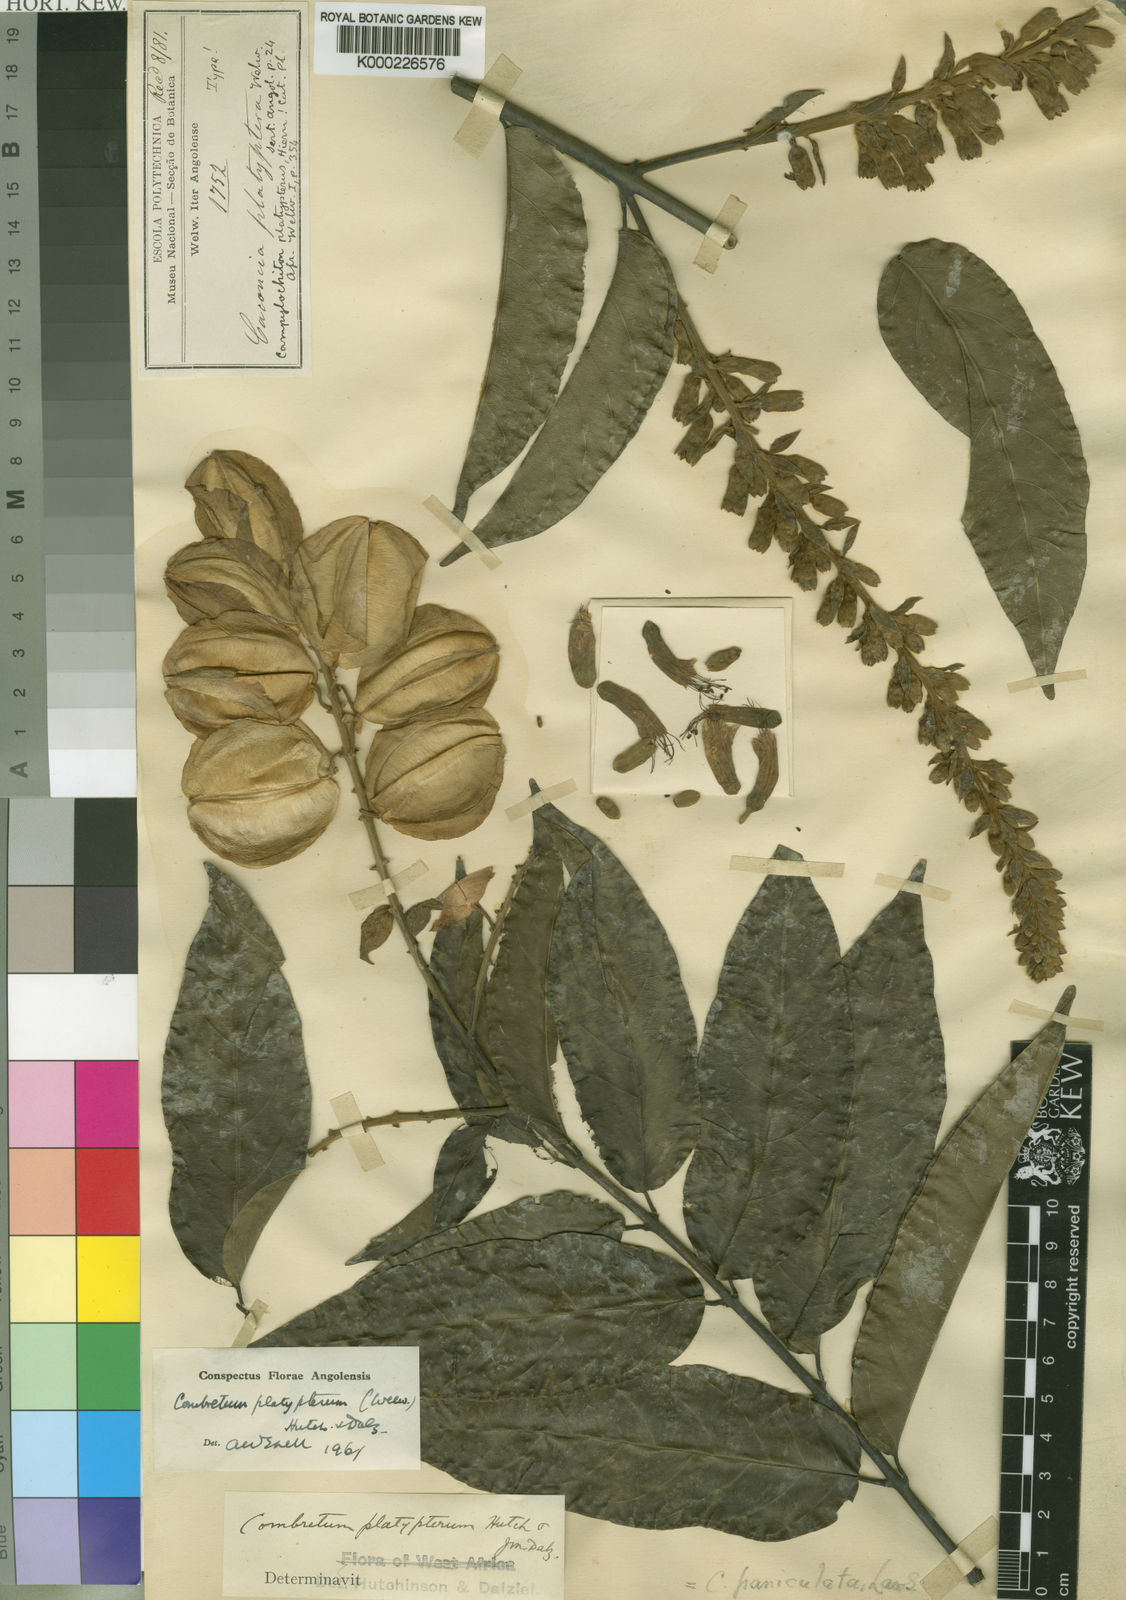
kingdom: Plantae
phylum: Tracheophyta
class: Magnoliopsida
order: Myrtales
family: Combretaceae
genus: Combretum
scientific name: Combretum platypterum
